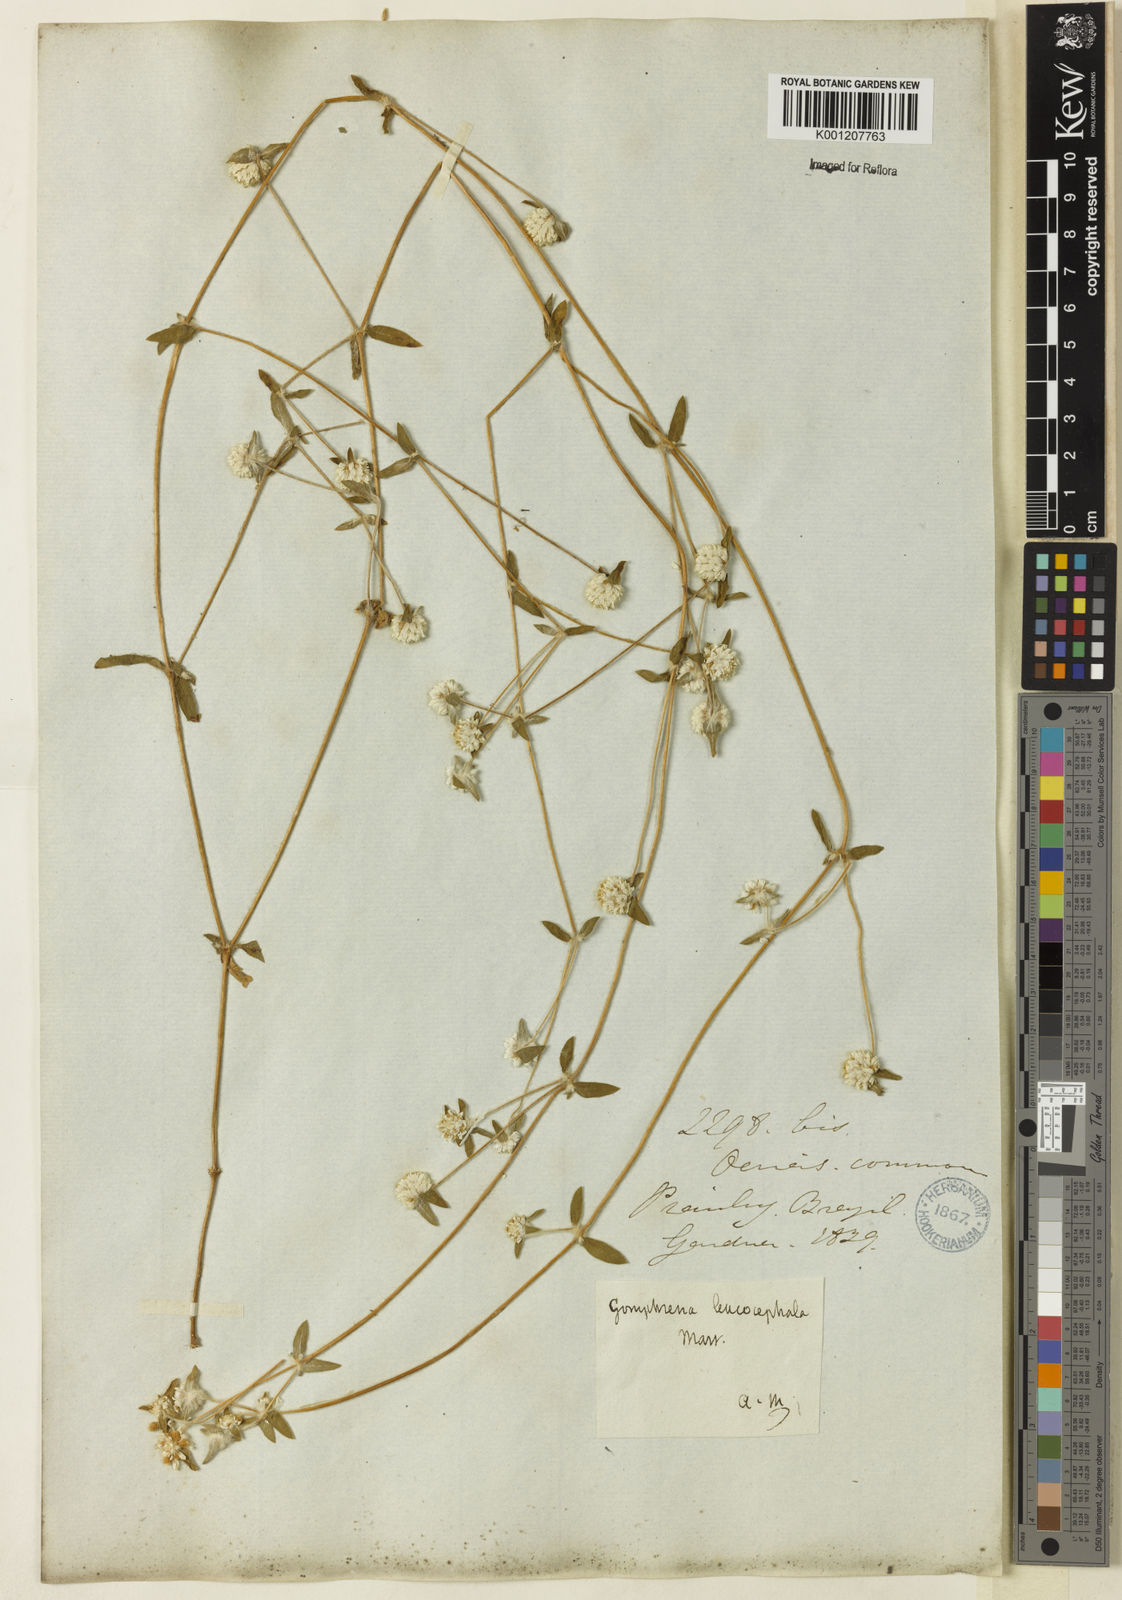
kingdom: Plantae
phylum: Tracheophyta
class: Magnoliopsida
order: Caryophyllales
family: Amaranthaceae
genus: Gomphrena
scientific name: Gomphrena leucocephala
